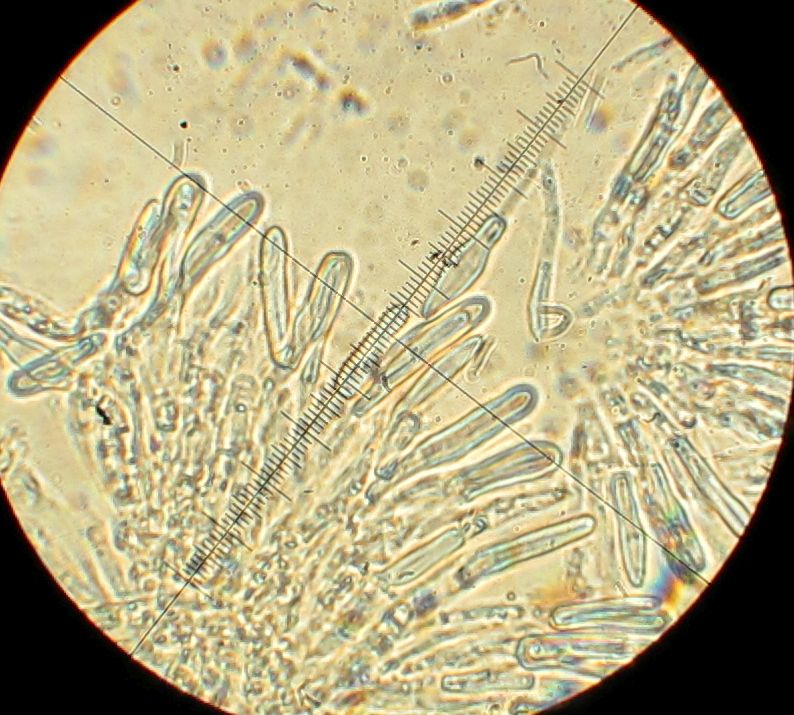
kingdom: Fungi
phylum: Ascomycota
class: Leotiomycetes
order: Helotiales
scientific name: Helotiales
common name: stilkskiveordenen
